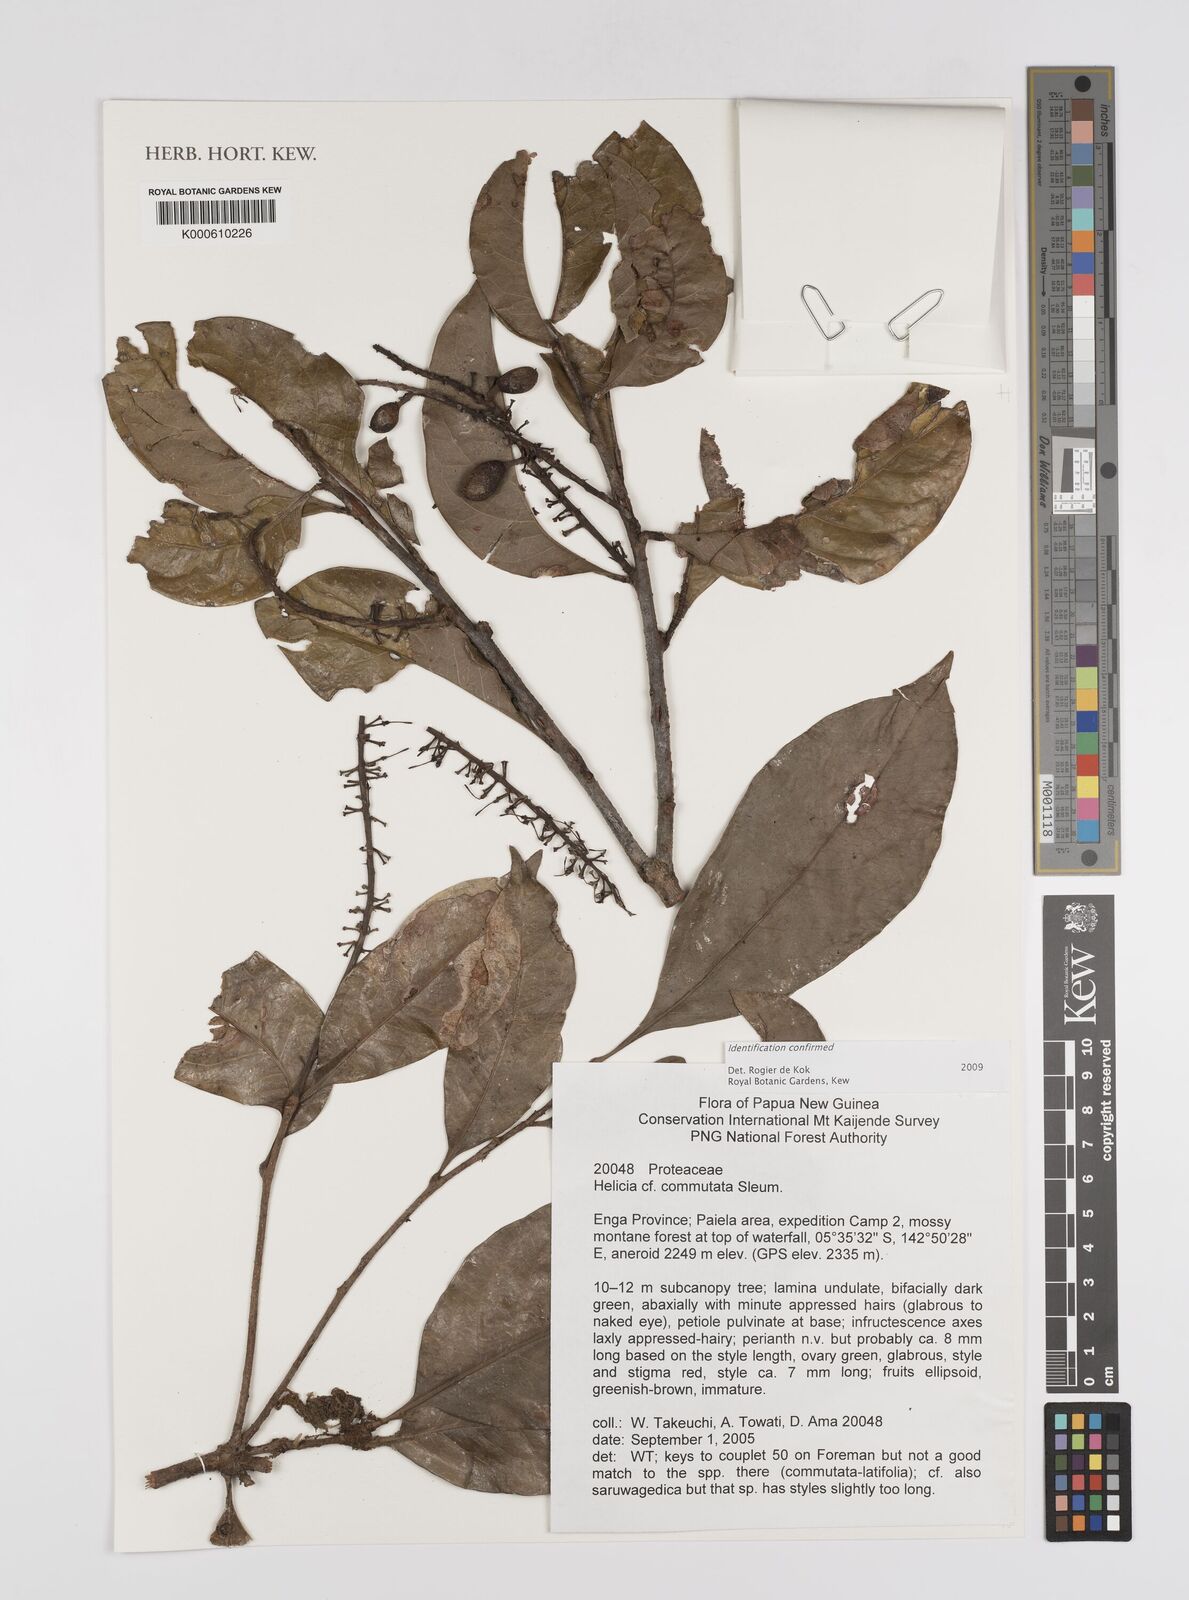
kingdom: Plantae
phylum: Tracheophyta
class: Magnoliopsida
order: Proteales
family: Proteaceae
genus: Helicia
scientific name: Helicia commutata
